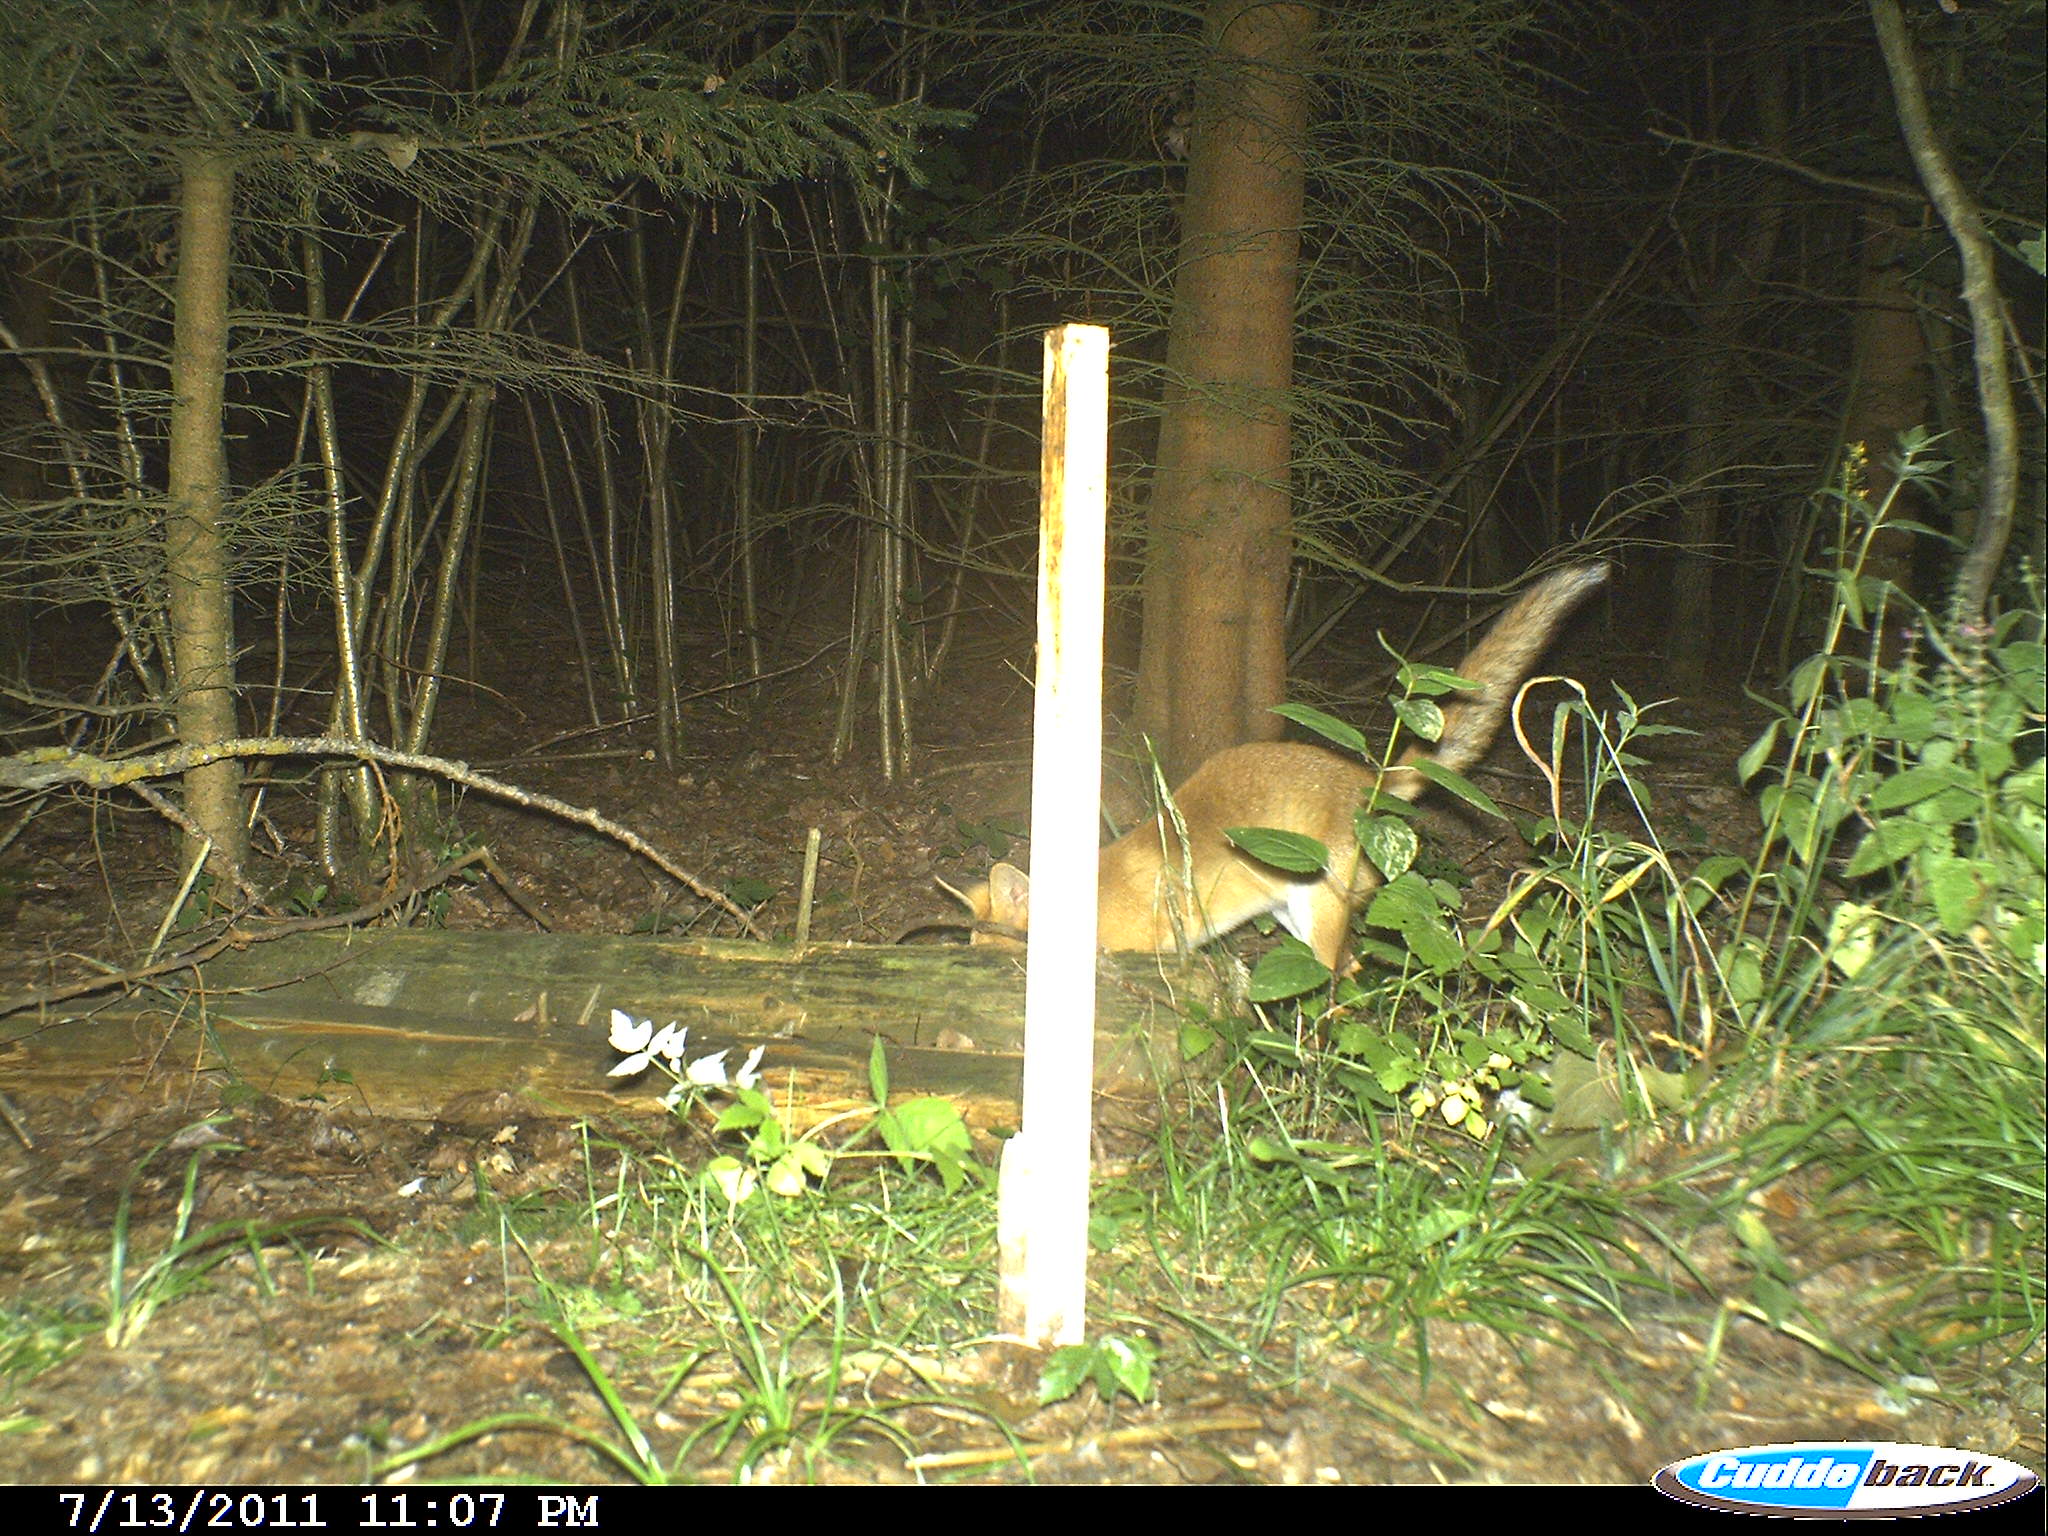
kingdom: Animalia
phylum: Chordata
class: Mammalia
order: Carnivora
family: Canidae
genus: Vulpes
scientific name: Vulpes vulpes
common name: Red fox
